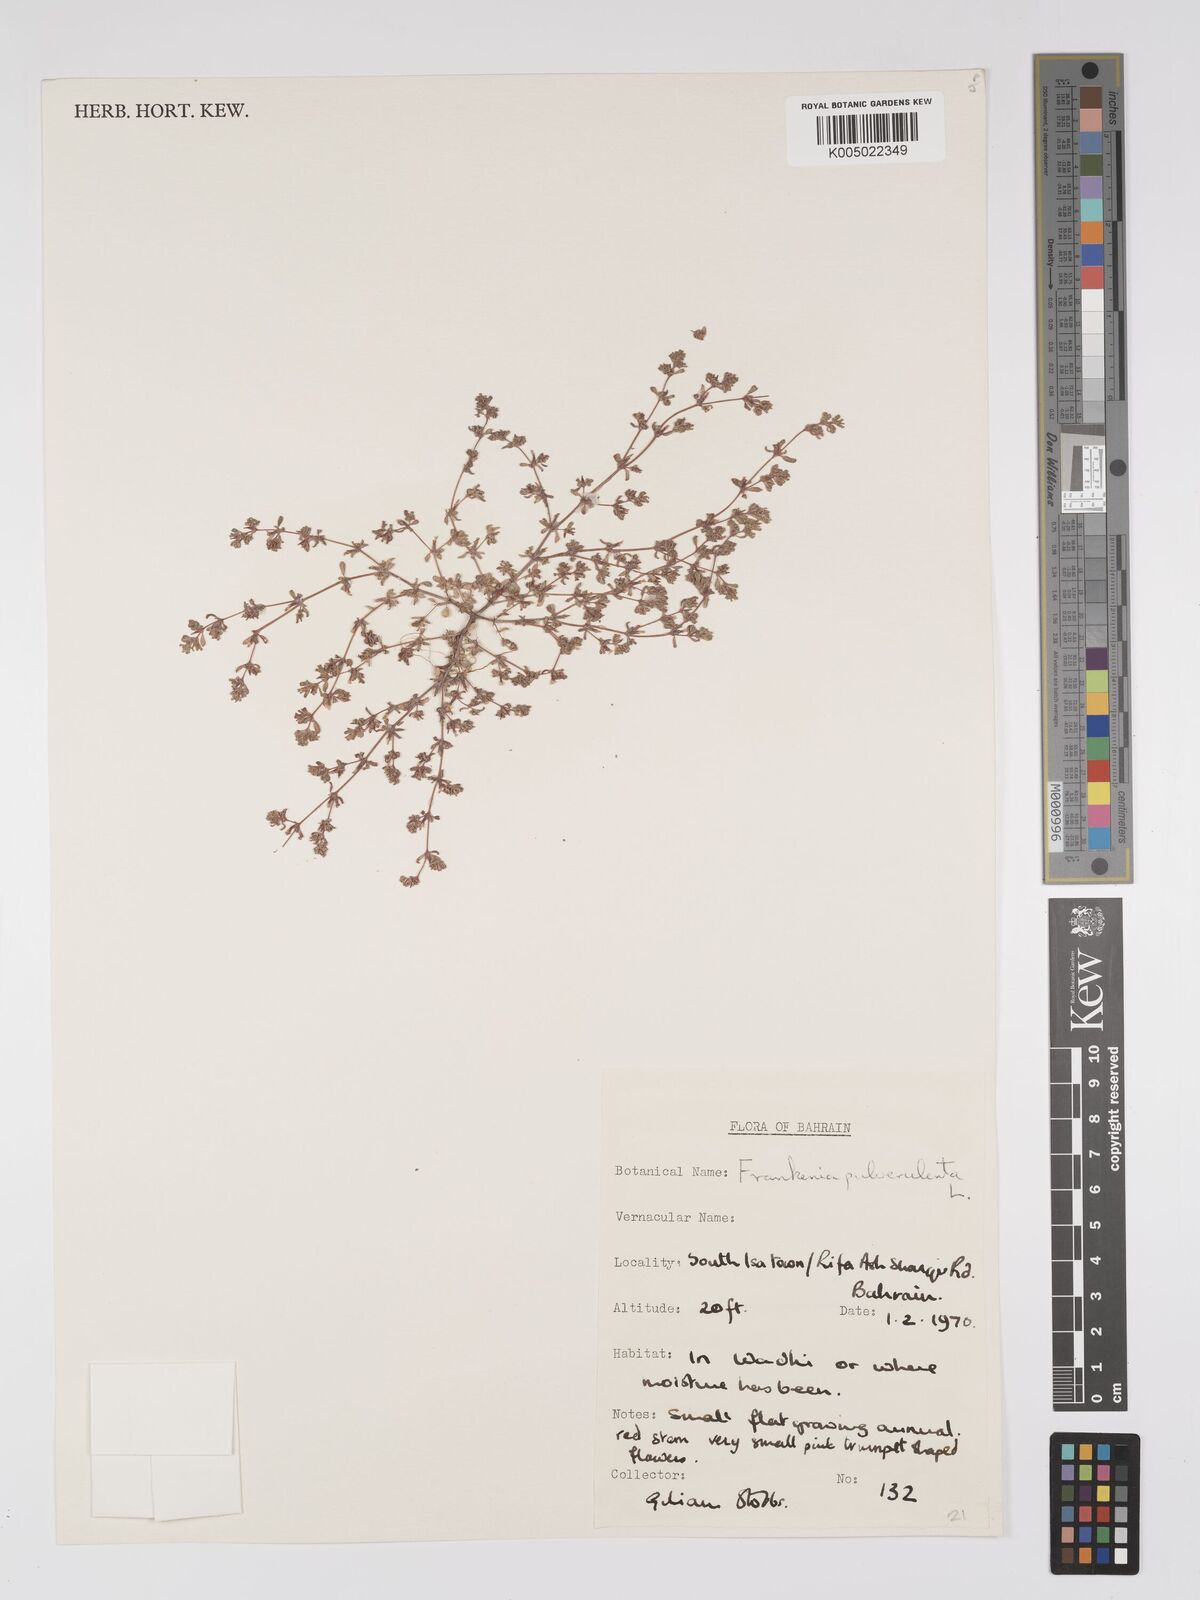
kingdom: Plantae
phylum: Tracheophyta
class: Magnoliopsida
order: Caryophyllales
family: Frankeniaceae
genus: Frankenia
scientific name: Frankenia pulverulenta
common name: European seaheath
